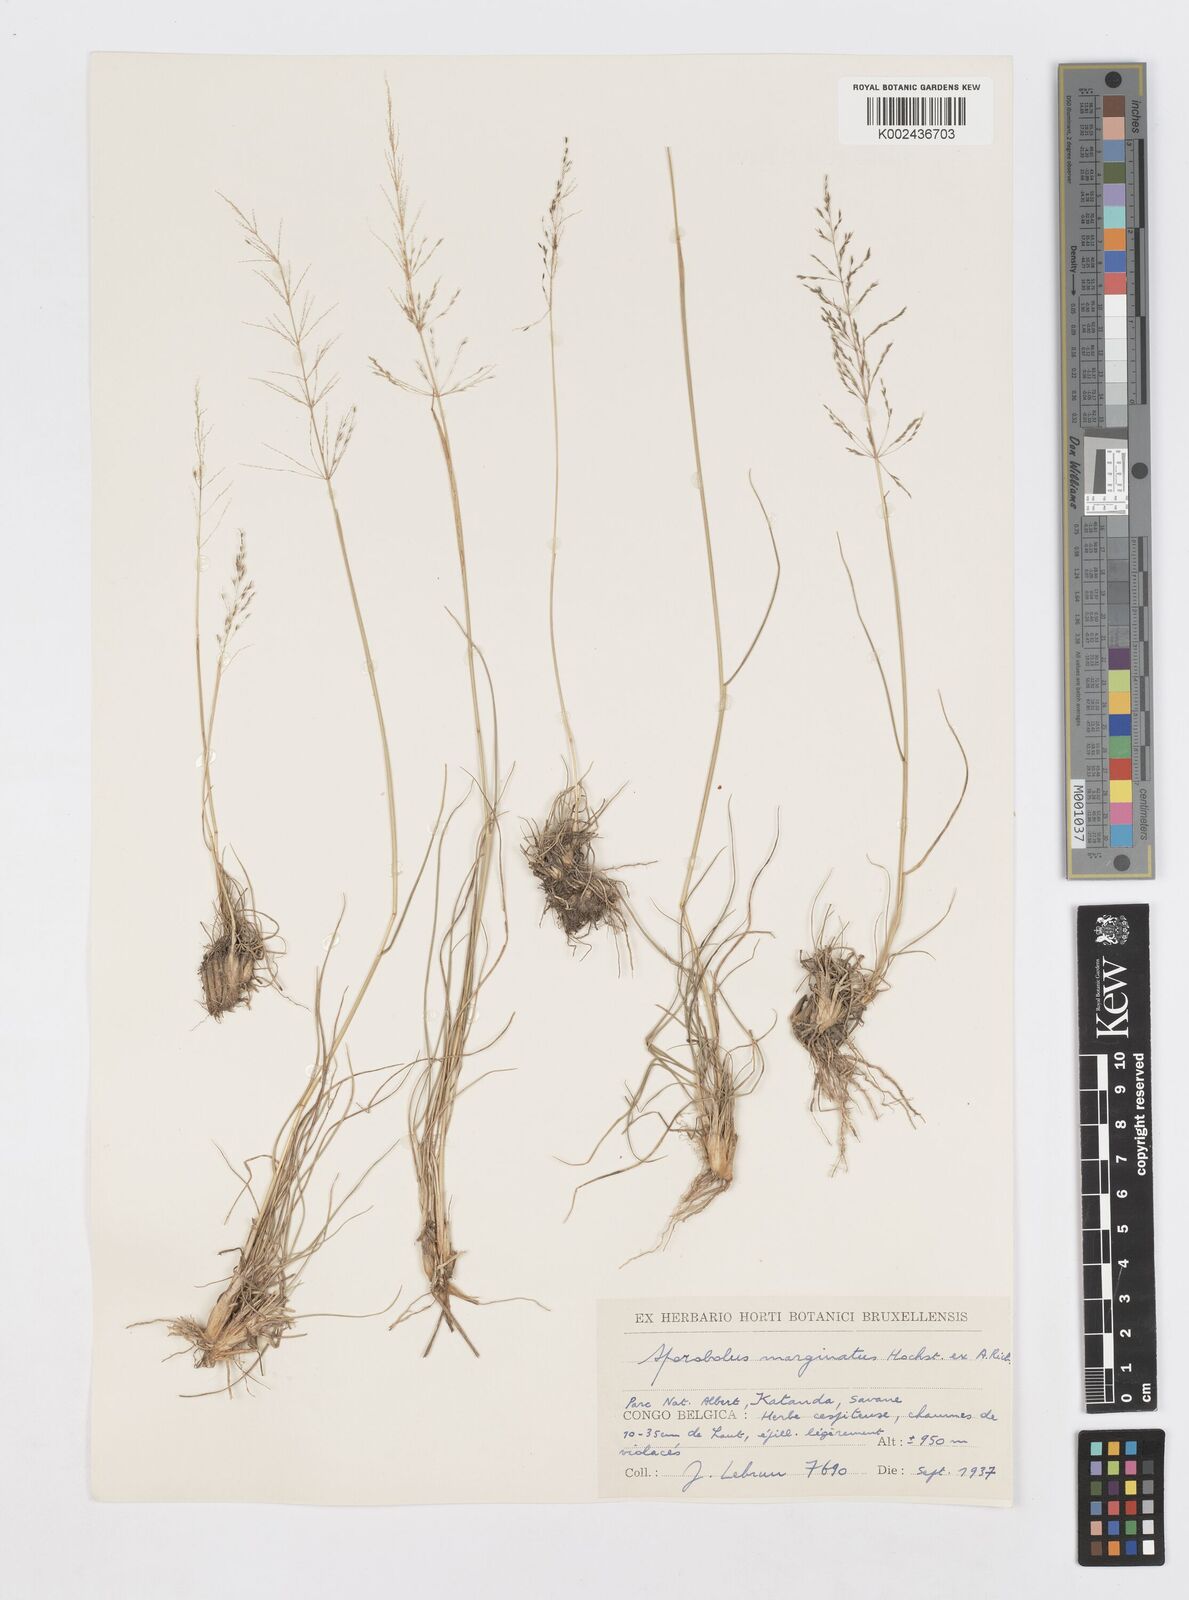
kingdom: Plantae
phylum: Tracheophyta
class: Liliopsida
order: Poales
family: Poaceae
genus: Sporobolus
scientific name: Sporobolus ioclados
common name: Pan dropseed
